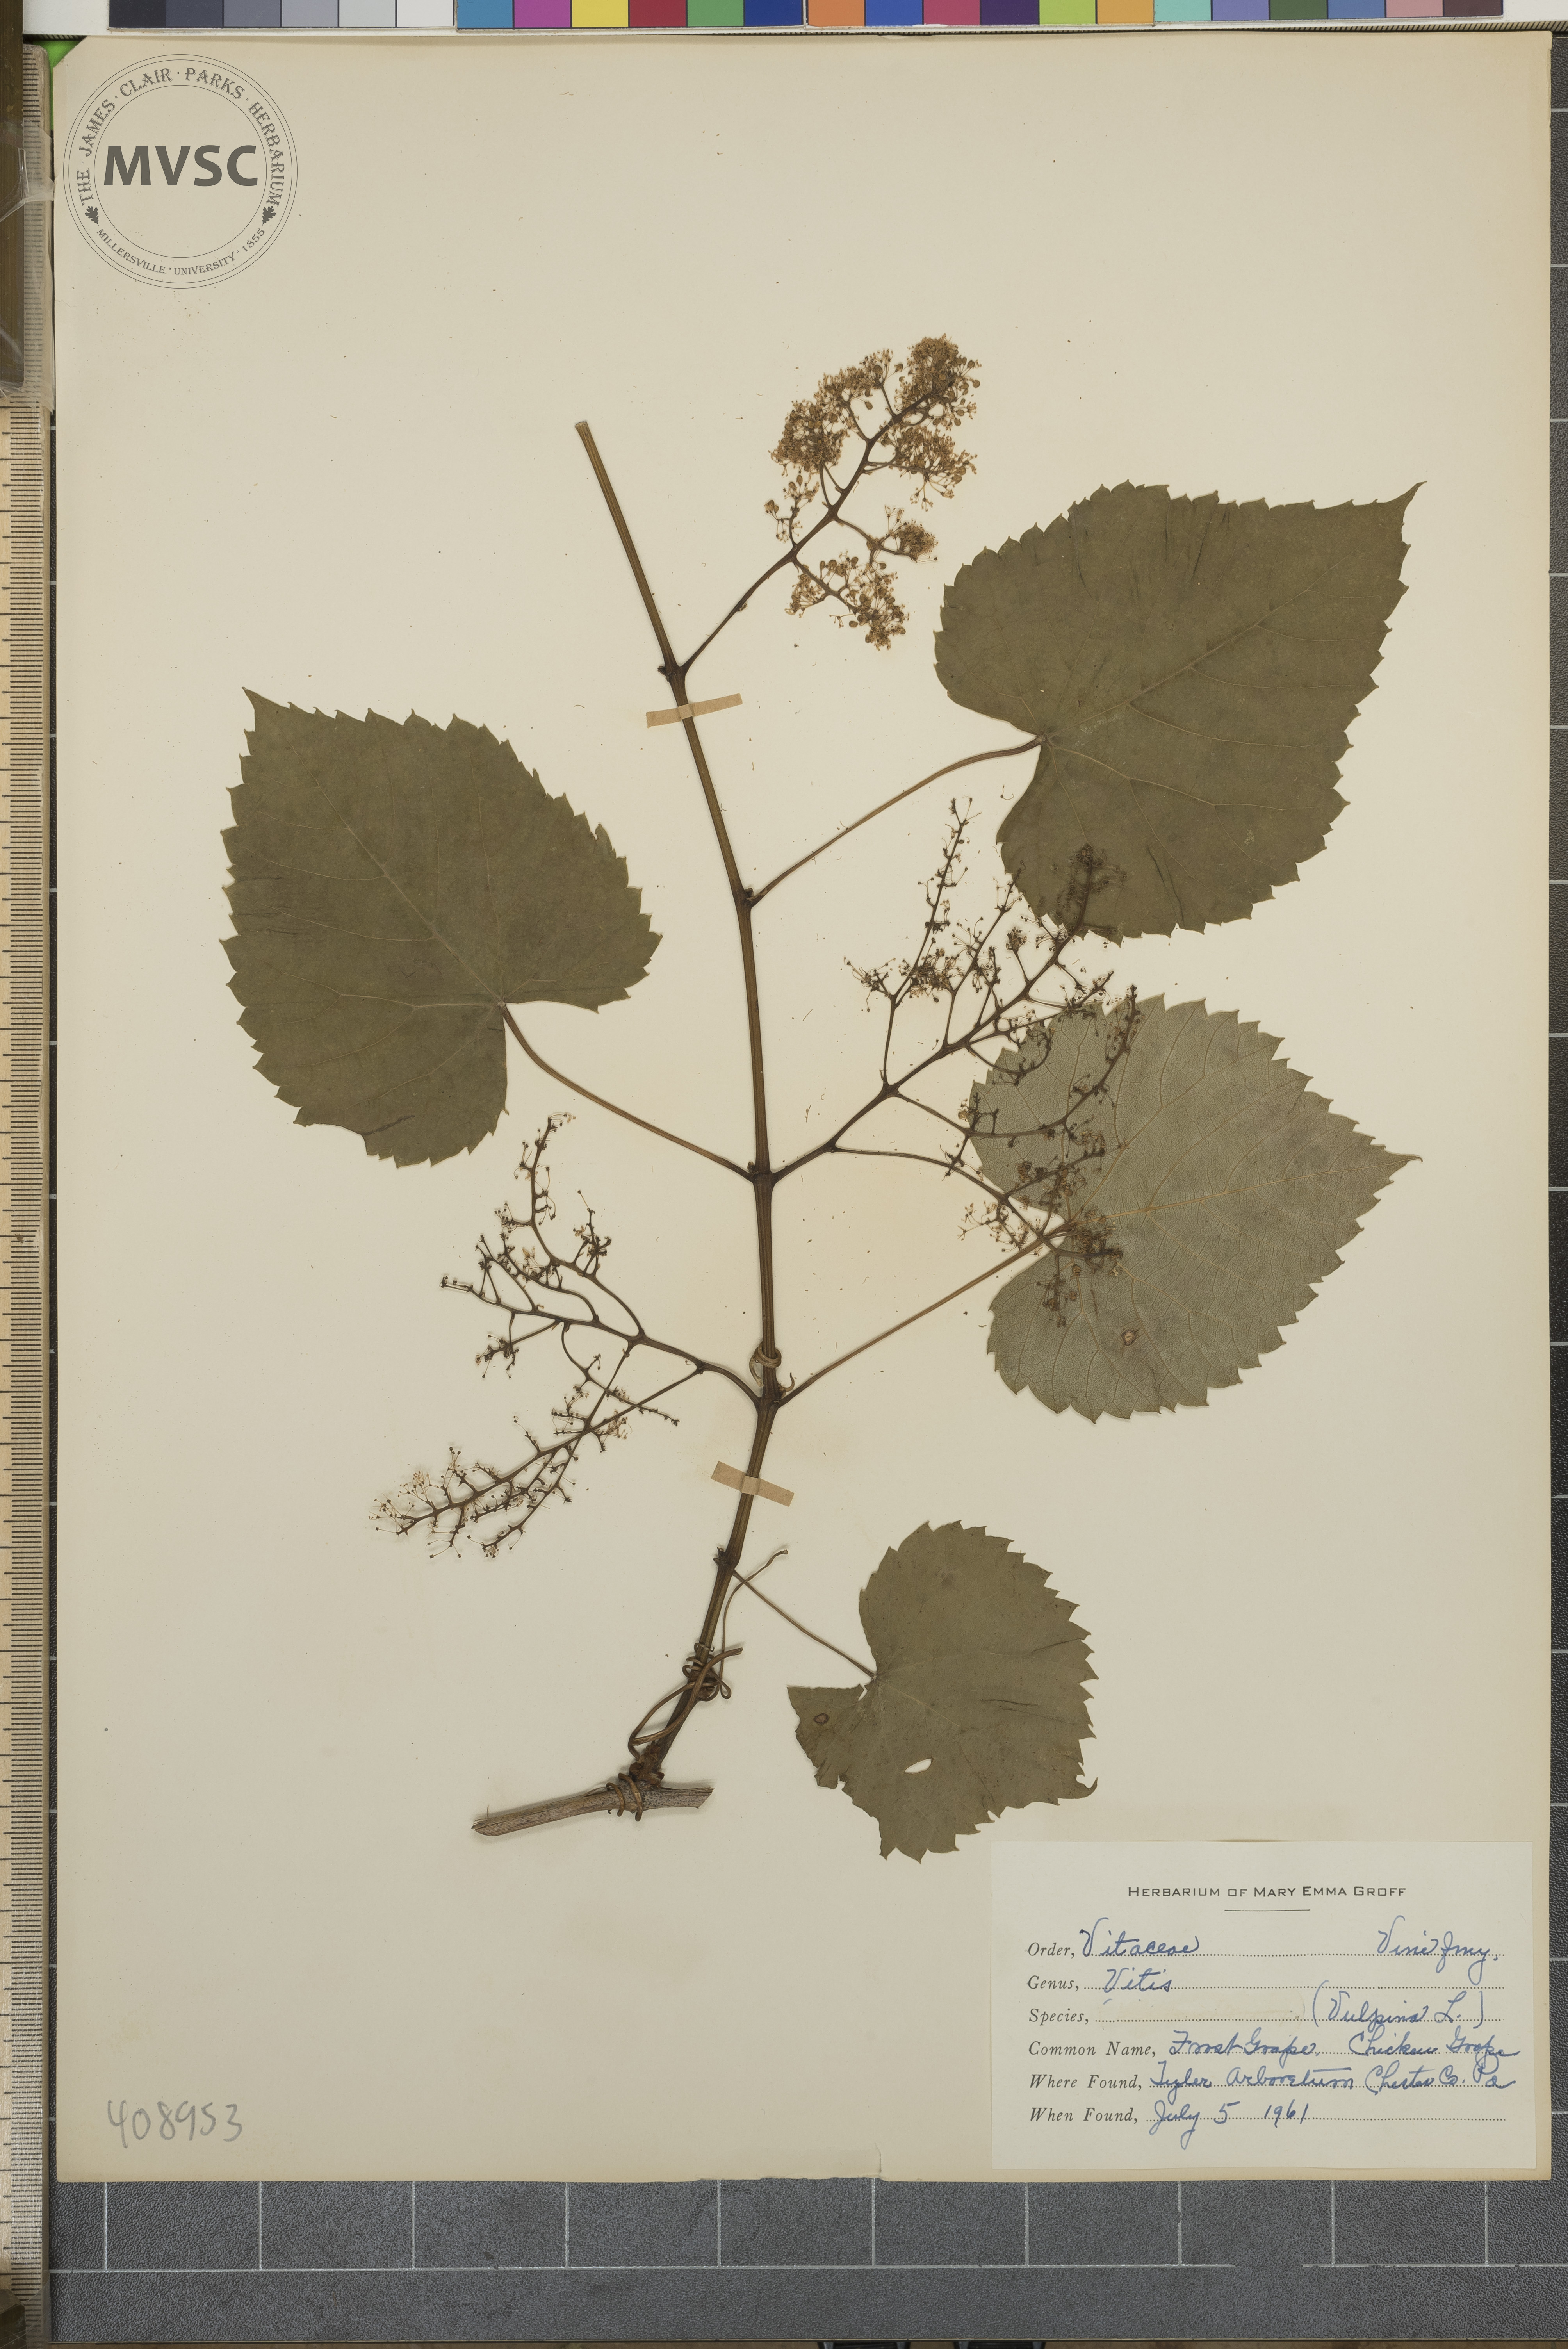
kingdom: Plantae
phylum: Tracheophyta
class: Magnoliopsida
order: Vitales
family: Vitaceae
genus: Vitis
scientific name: Vitis vulpina
